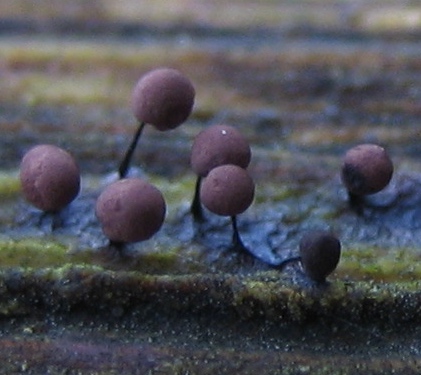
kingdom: Protozoa
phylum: Mycetozoa
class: Myxomycetes
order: Stemonitidales
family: Stemonitidaceae
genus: Comatricha
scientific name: Comatricha
